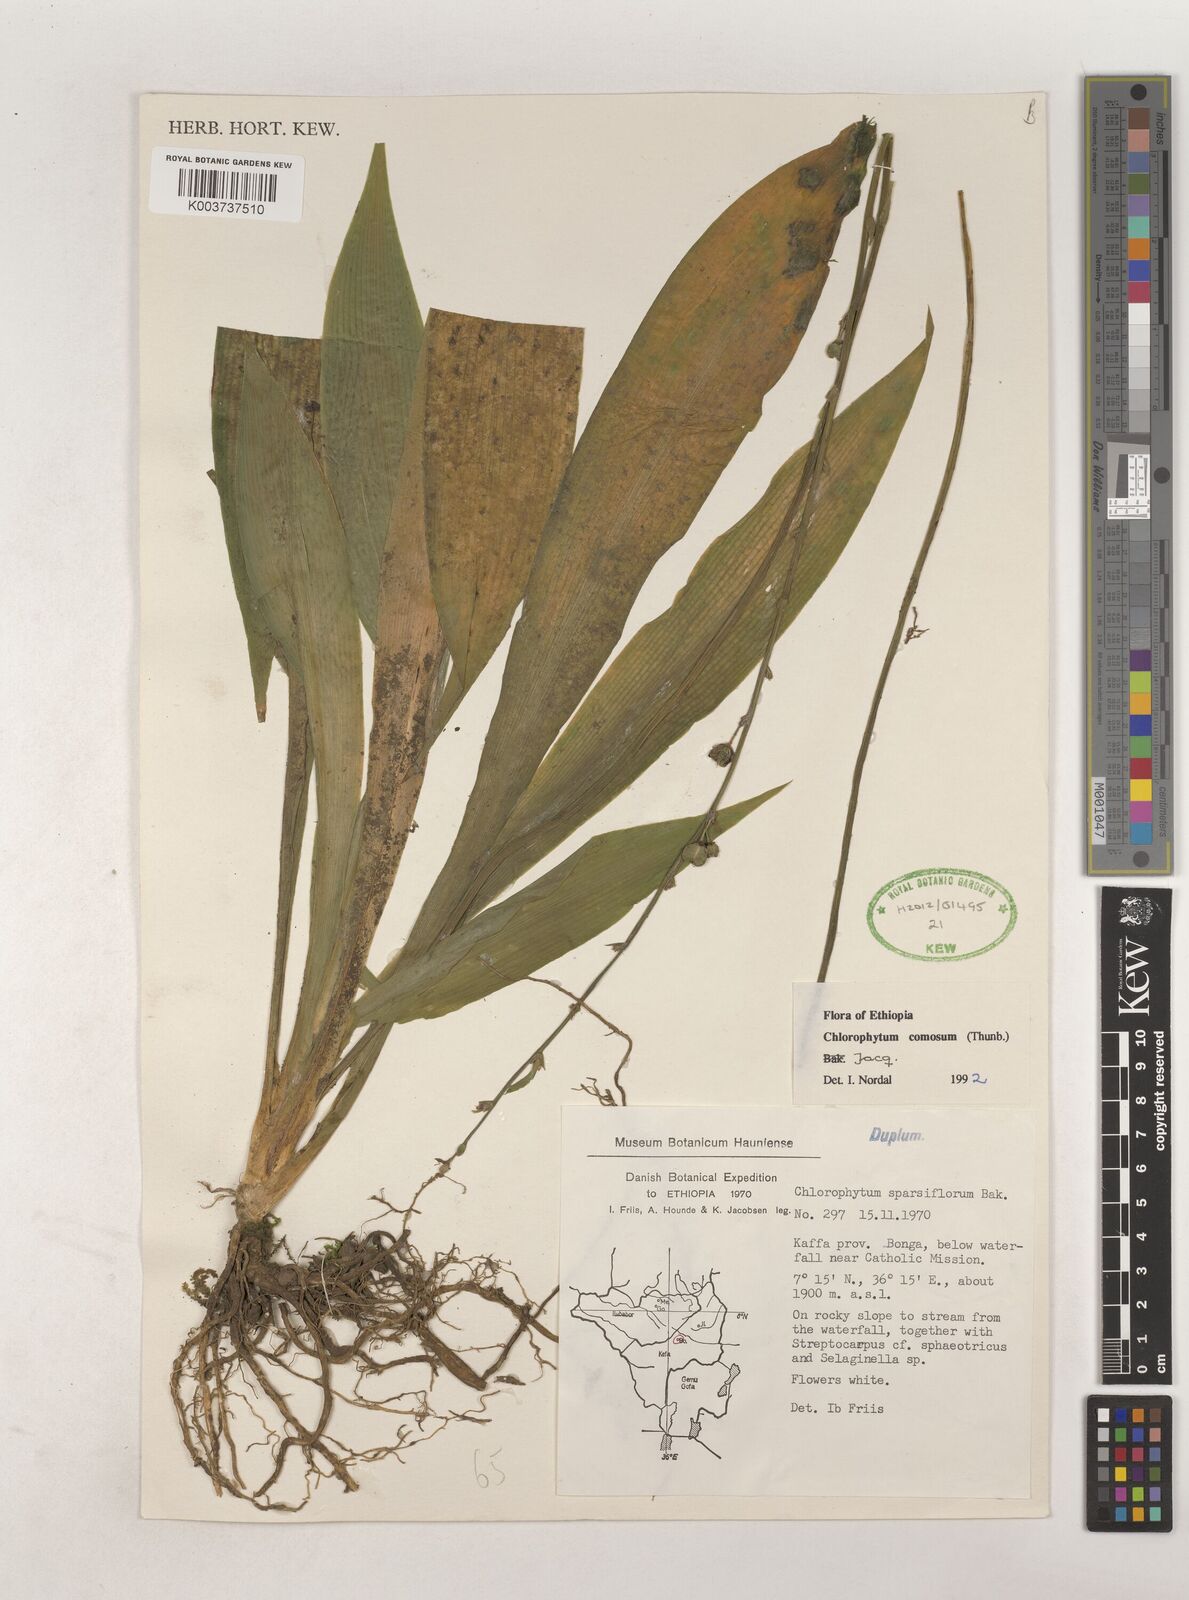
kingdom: Plantae
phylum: Tracheophyta
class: Liliopsida
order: Asparagales
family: Asparagaceae
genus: Chlorophytum
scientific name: Chlorophytum comosum
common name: Spider plant
